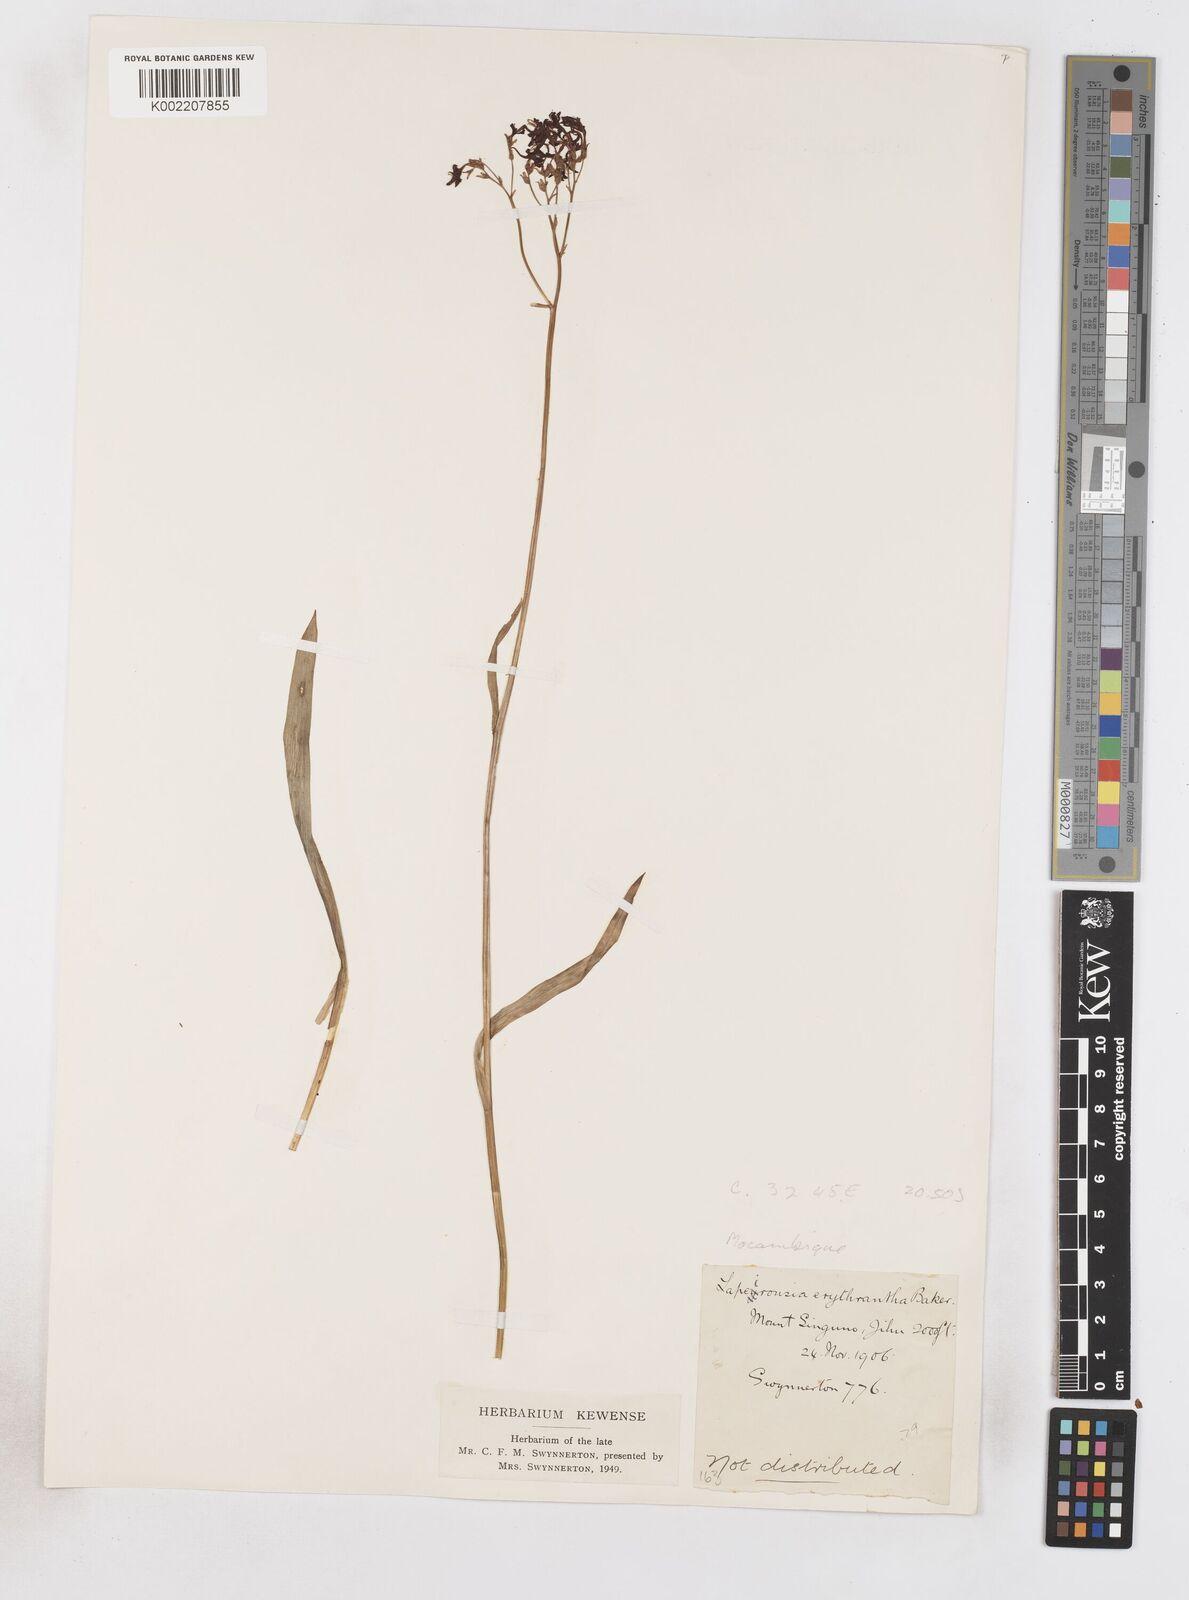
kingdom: Plantae
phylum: Tracheophyta
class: Liliopsida
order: Asparagales
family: Iridaceae
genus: Afrosolen
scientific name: Afrosolen erythranthus
